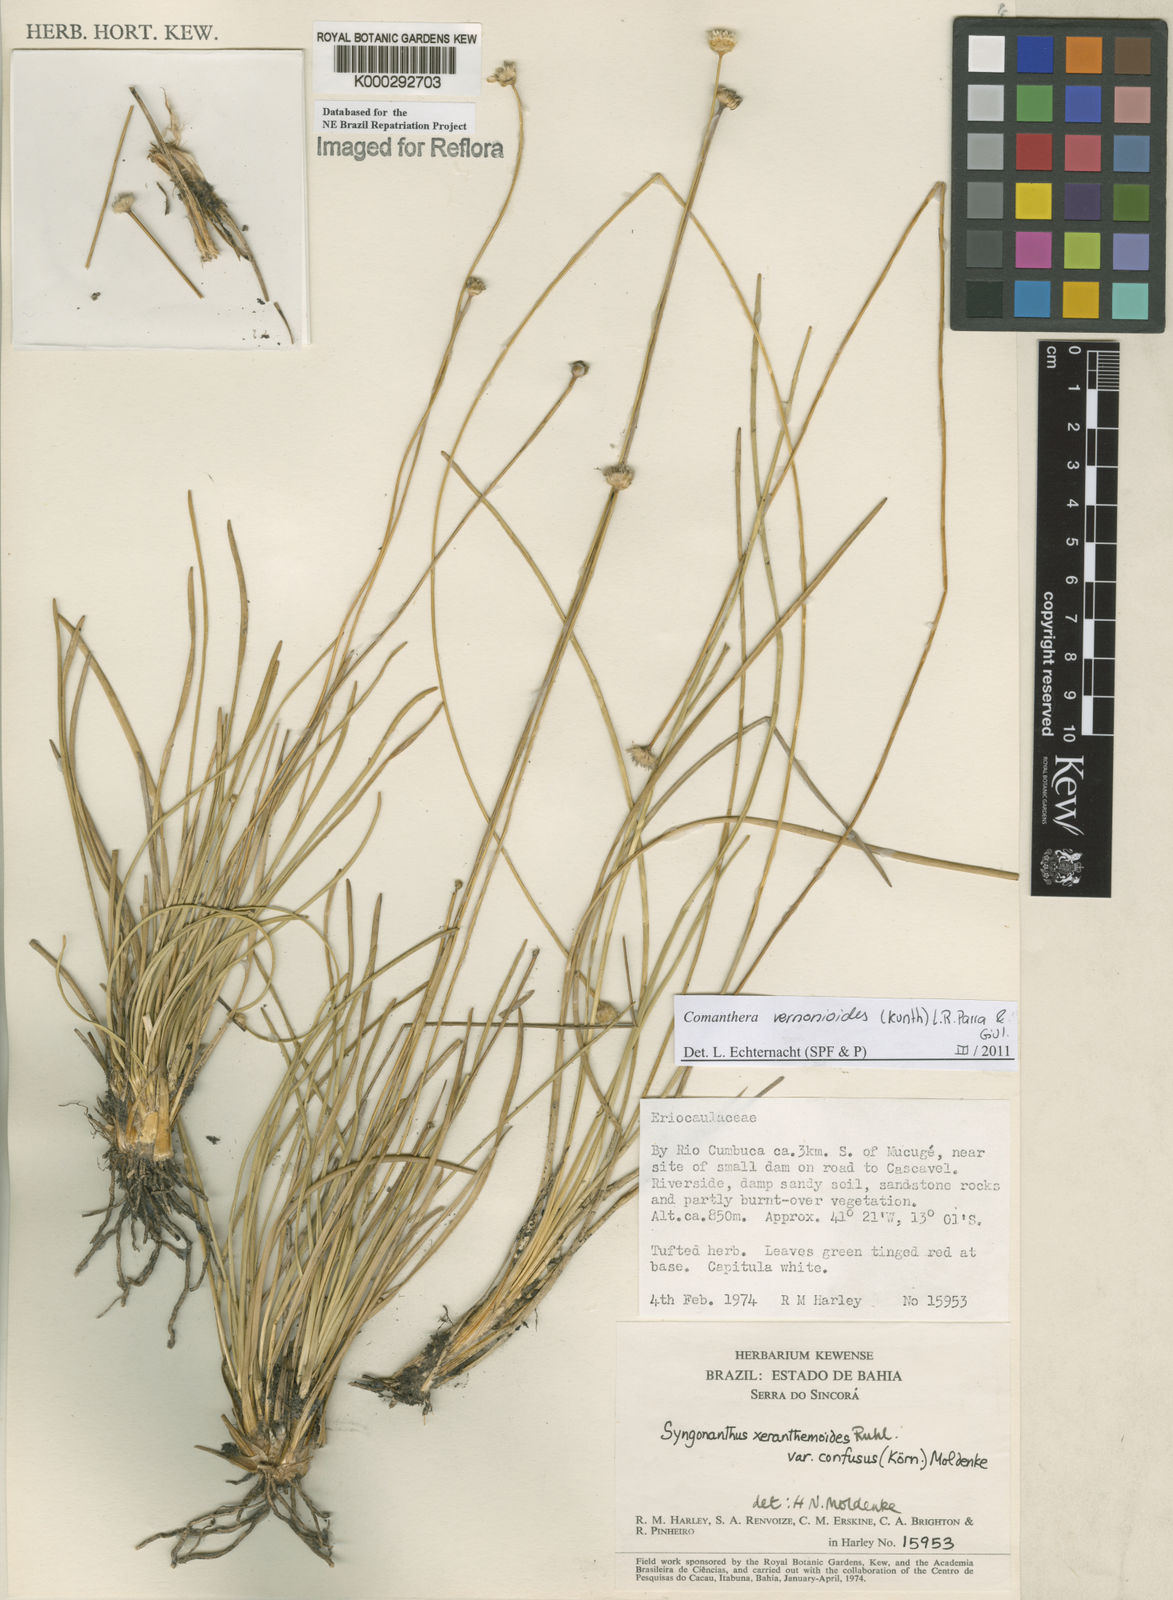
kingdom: Plantae
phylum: Tracheophyta
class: Liliopsida
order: Poales
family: Eriocaulaceae
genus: Syngonanthus
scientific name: Syngonanthus
